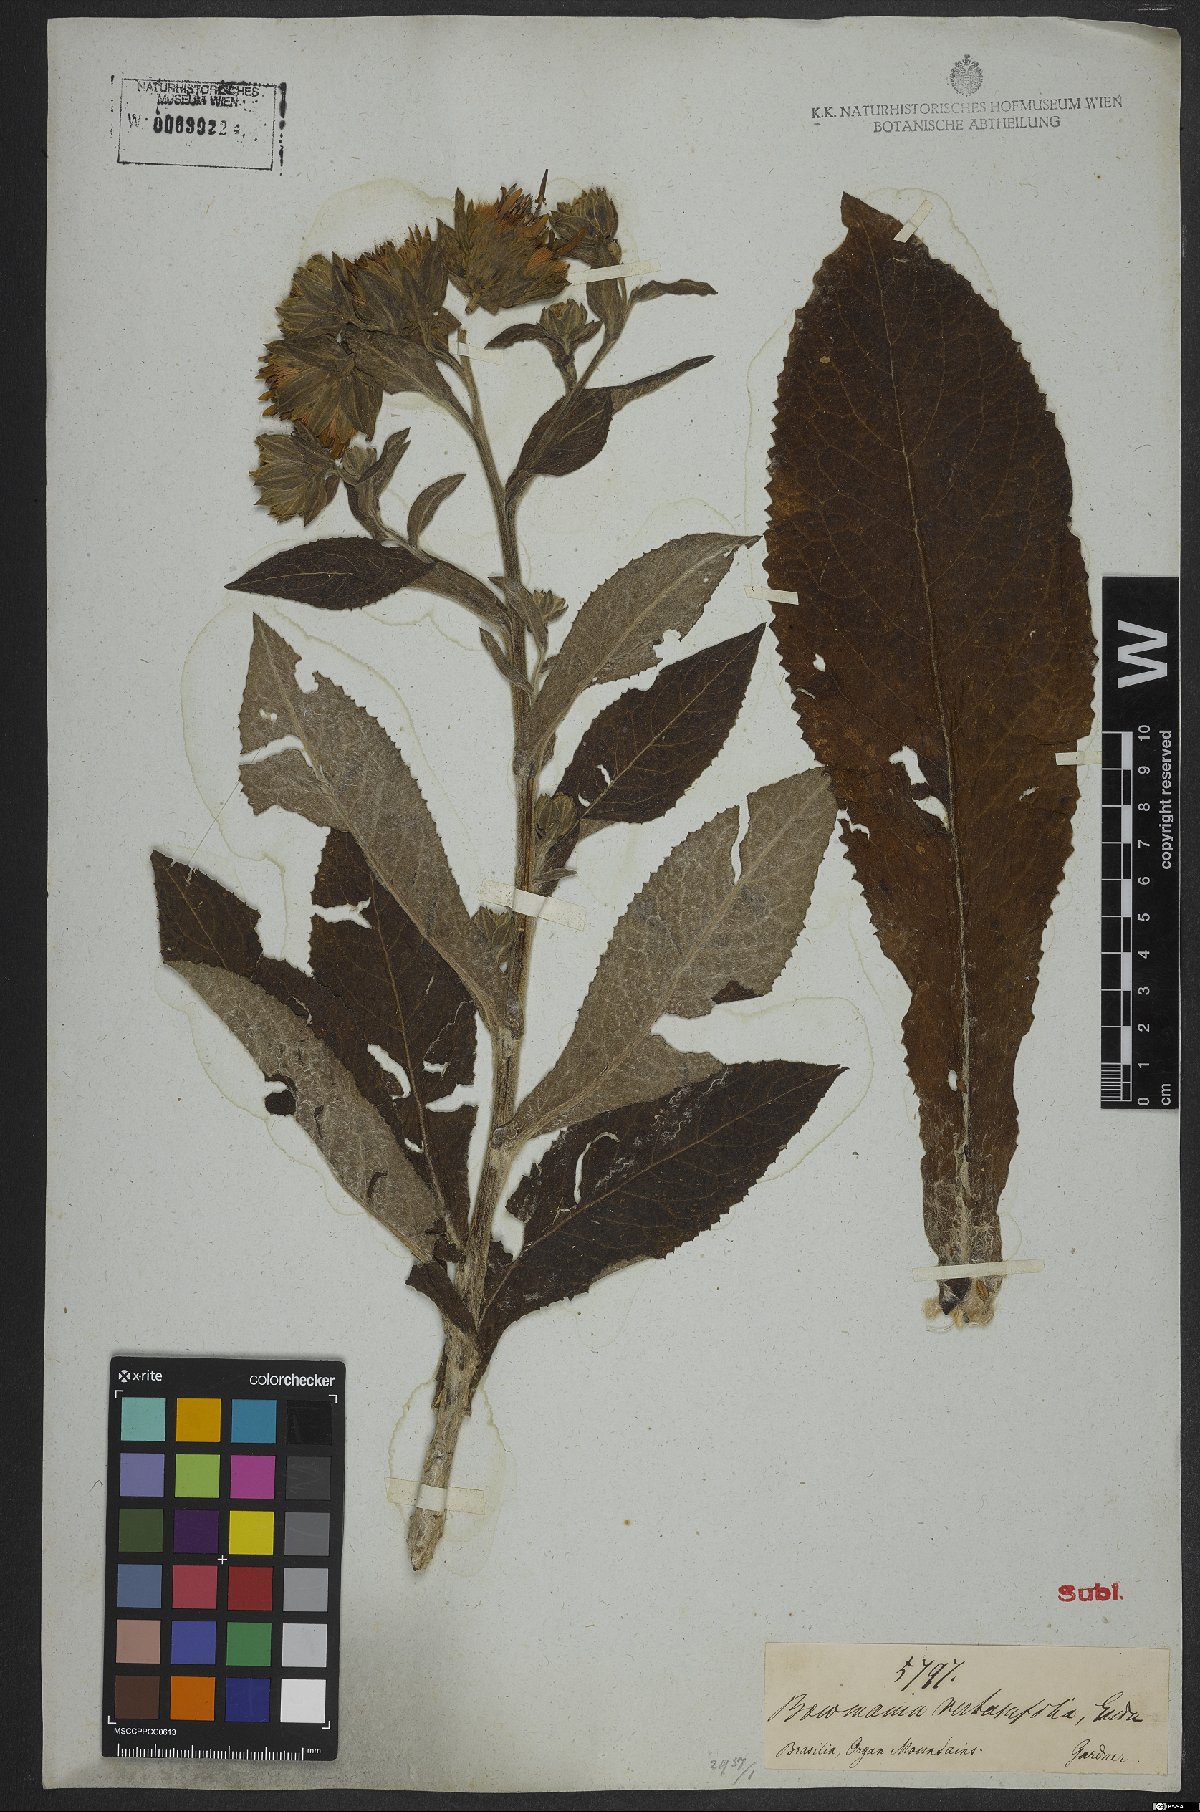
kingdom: Plantae
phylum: Tracheophyta
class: Magnoliopsida
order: Asterales
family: Asteraceae
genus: Trixis
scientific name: Trixis verbascifolia
